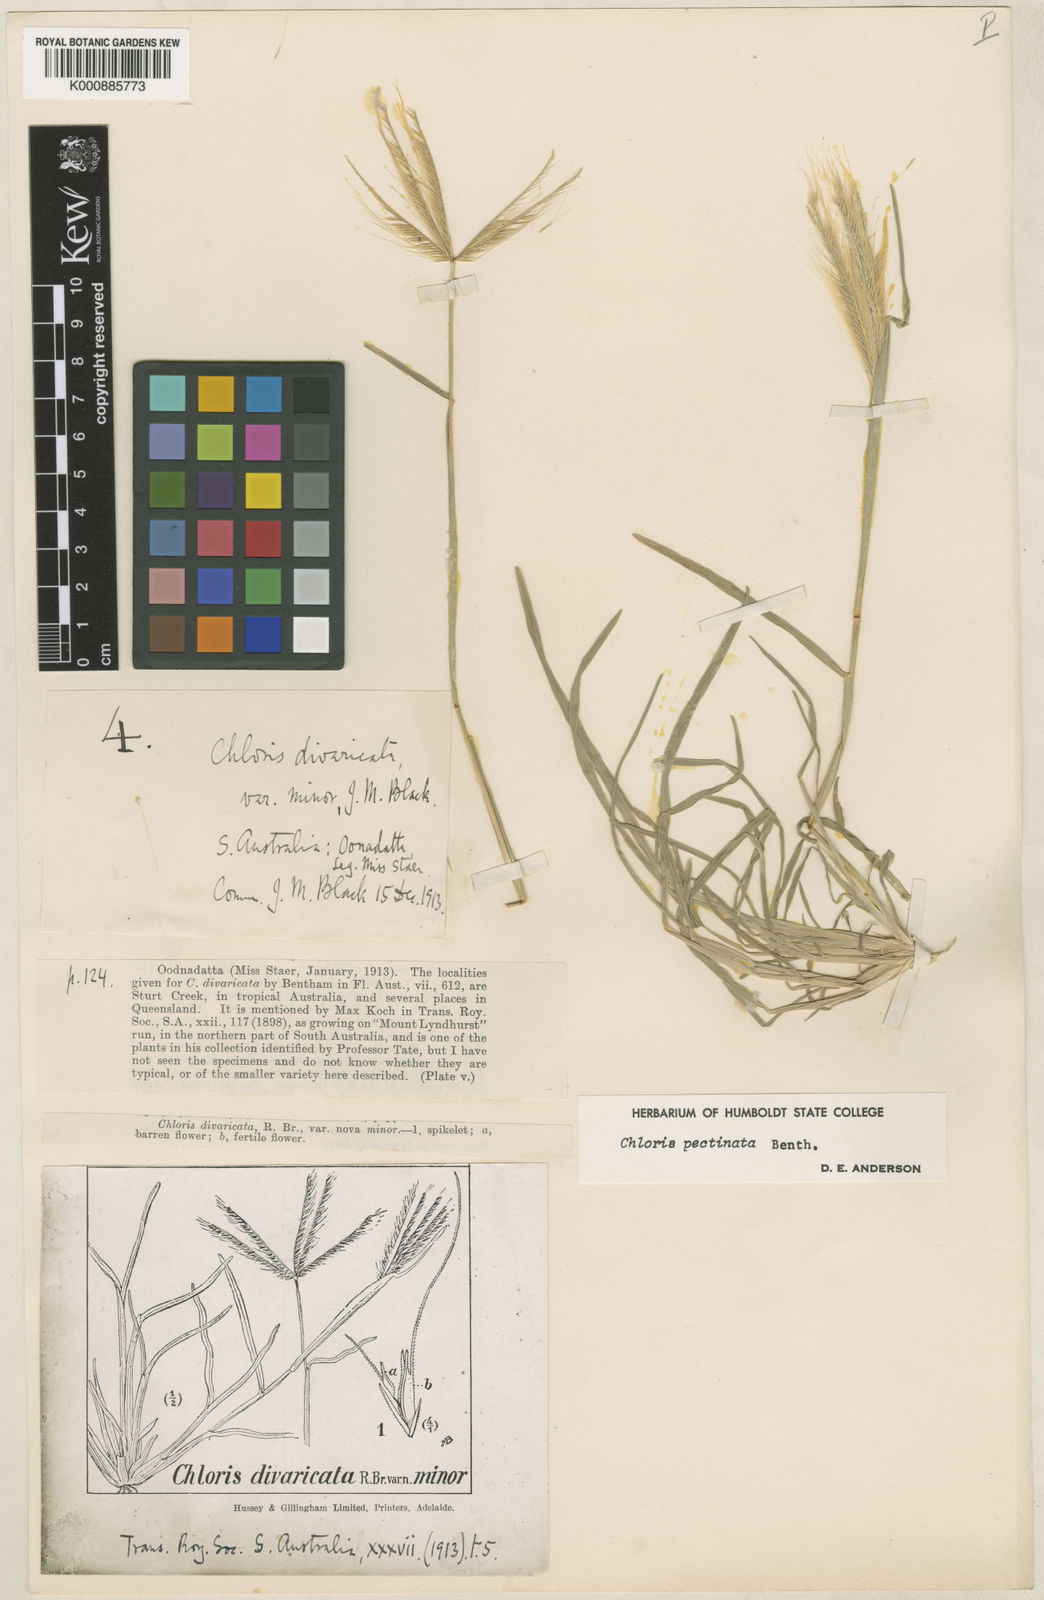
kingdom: Plantae
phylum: Tracheophyta
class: Liliopsida
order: Poales
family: Poaceae
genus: Chloris
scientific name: Chloris pectinata
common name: Comb windmill grass
